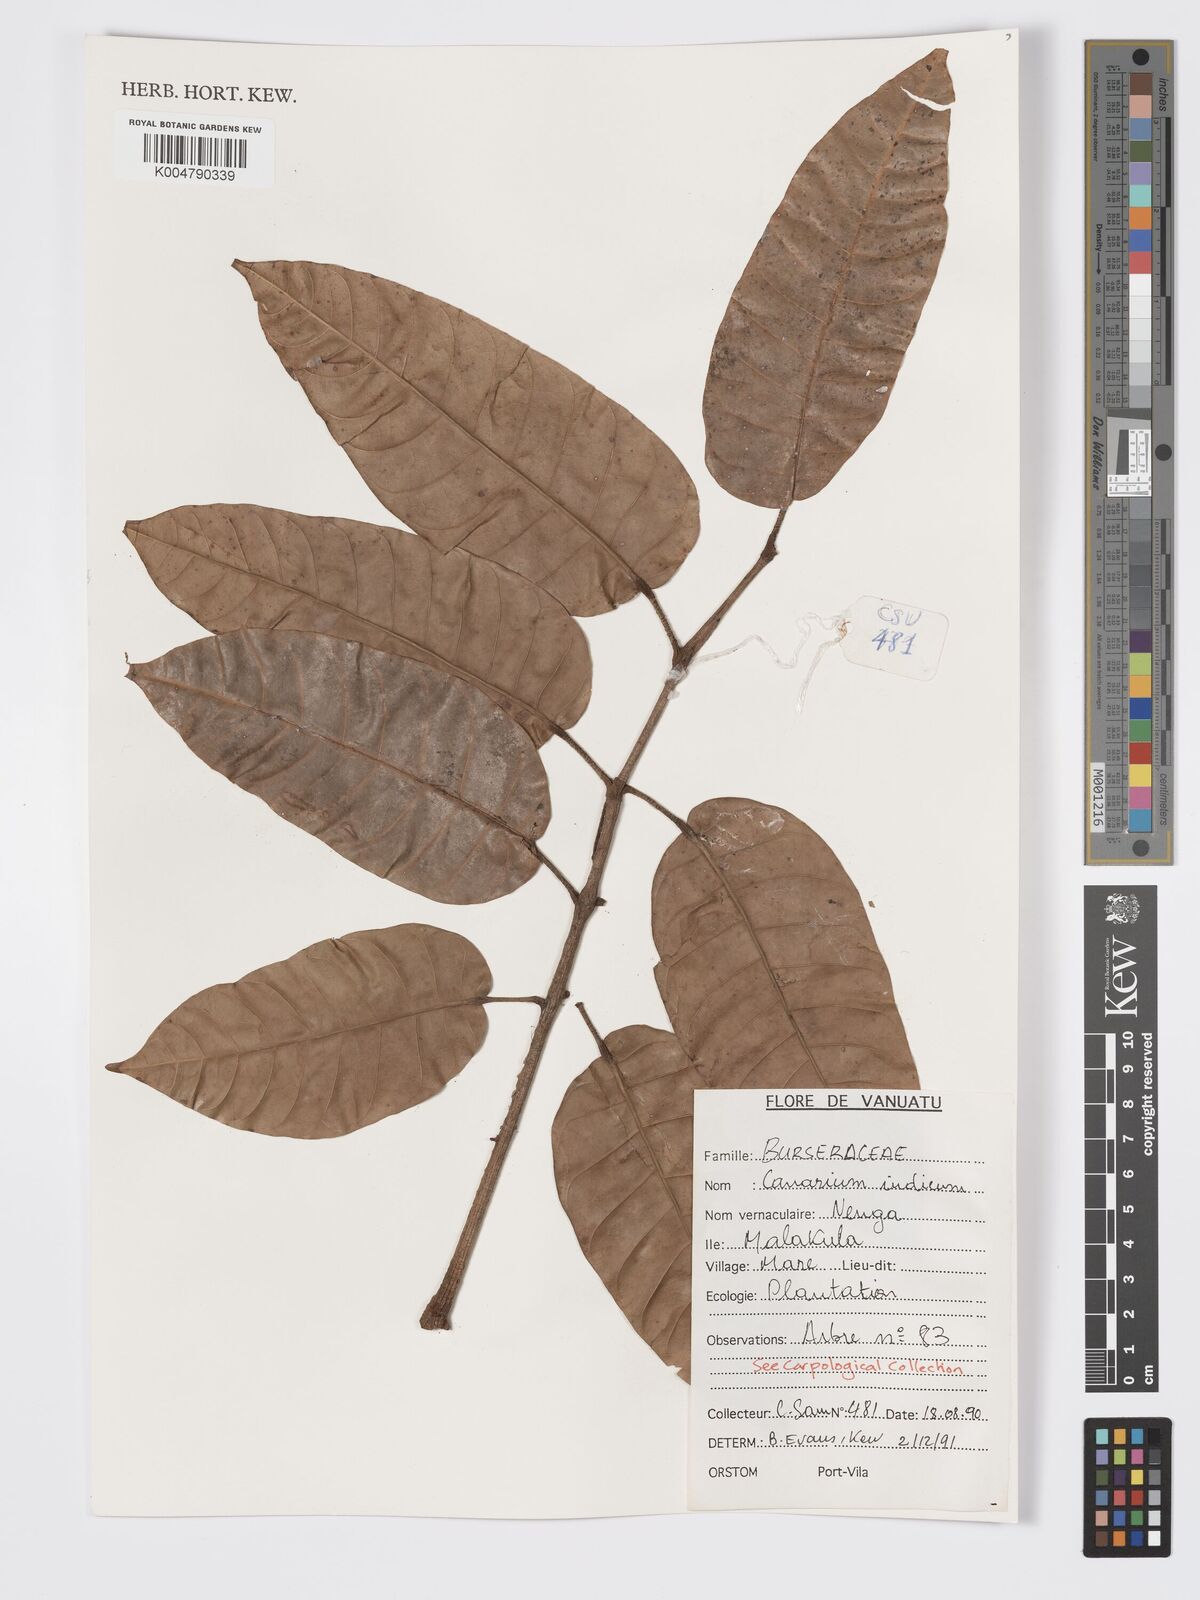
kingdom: Plantae
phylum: Tracheophyta
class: Magnoliopsida
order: Sapindales
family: Burseraceae
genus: Canarium
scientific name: Canarium indicum
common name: Canarium-nut
